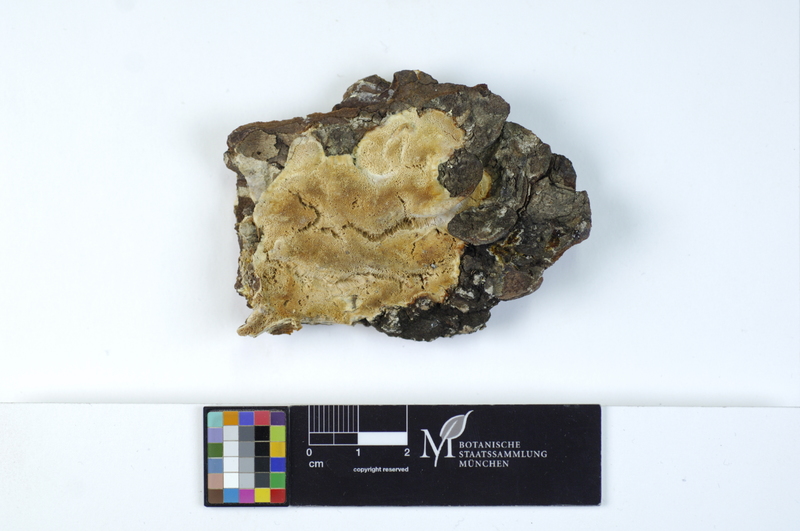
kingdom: Fungi
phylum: Basidiomycota
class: Agaricomycetes
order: Polyporales
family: Incrustoporiaceae
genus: Skeletocutis
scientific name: Skeletocutis tschulymica
